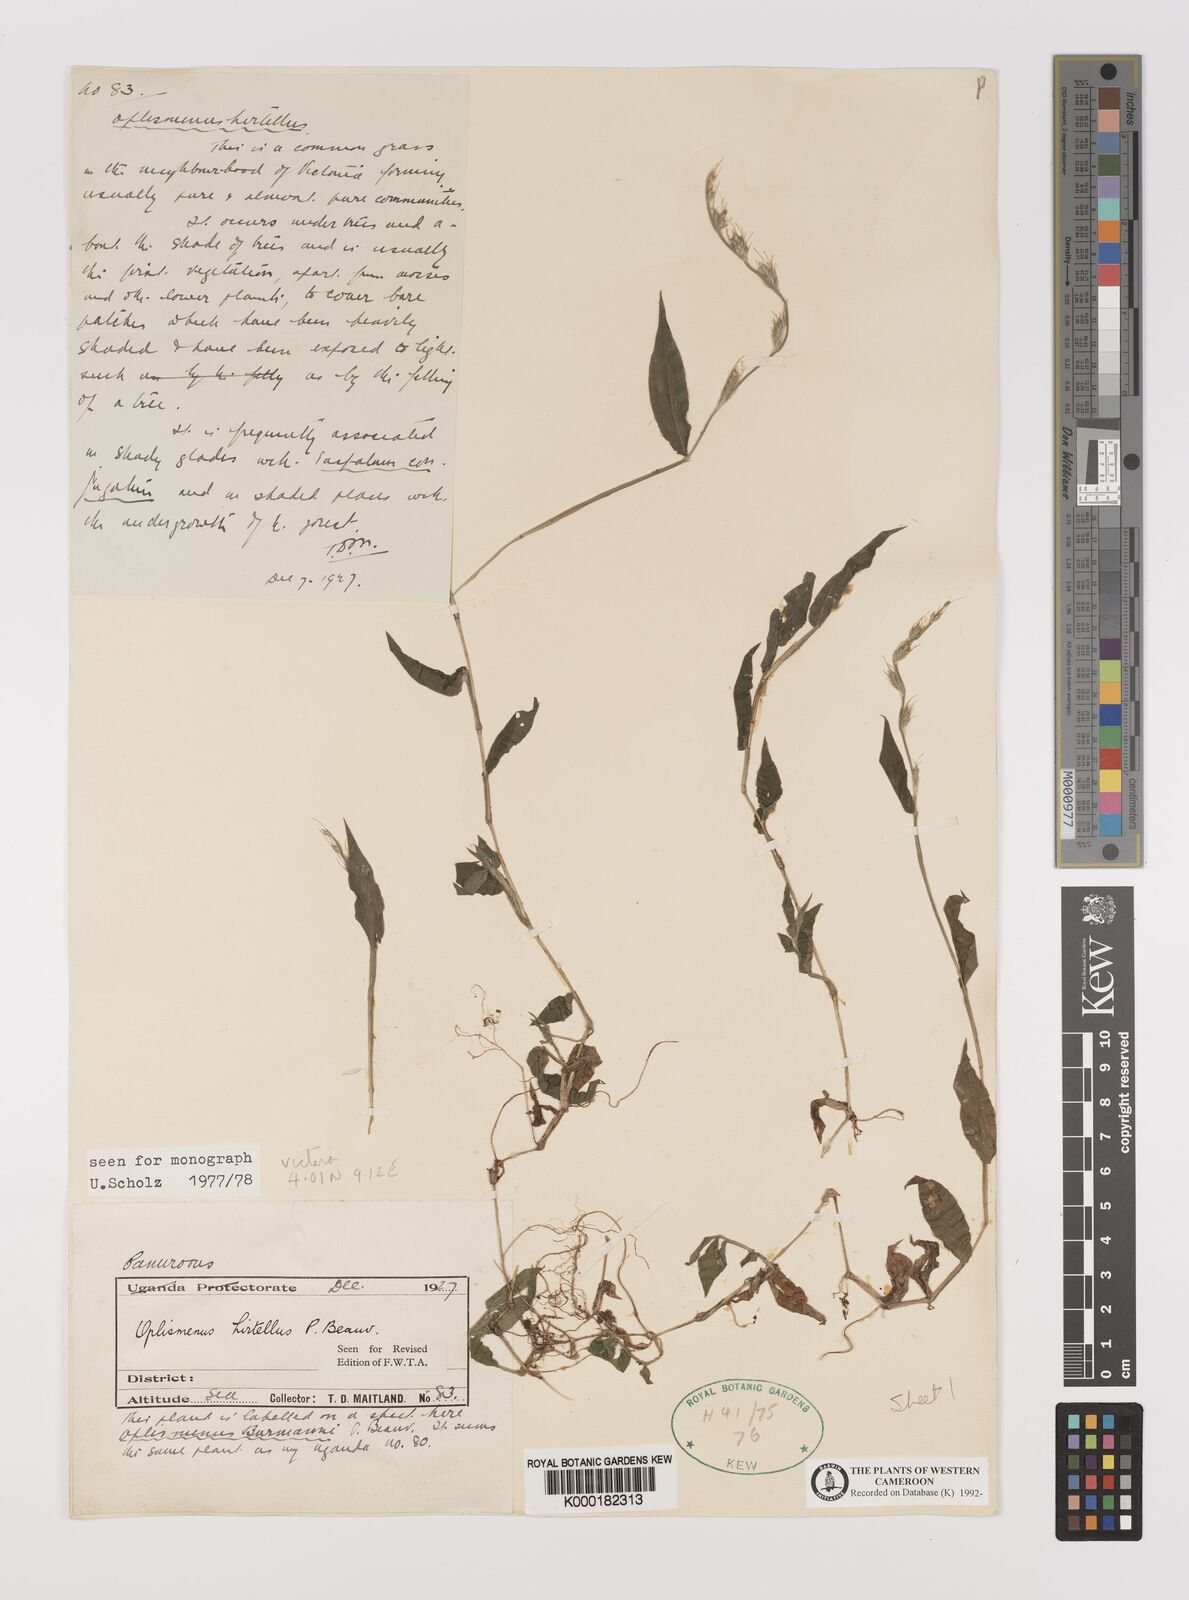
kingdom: Plantae
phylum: Tracheophyta
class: Liliopsida
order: Poales
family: Poaceae
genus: Oplismenus
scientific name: Oplismenus hirtellus
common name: Basketgrass
